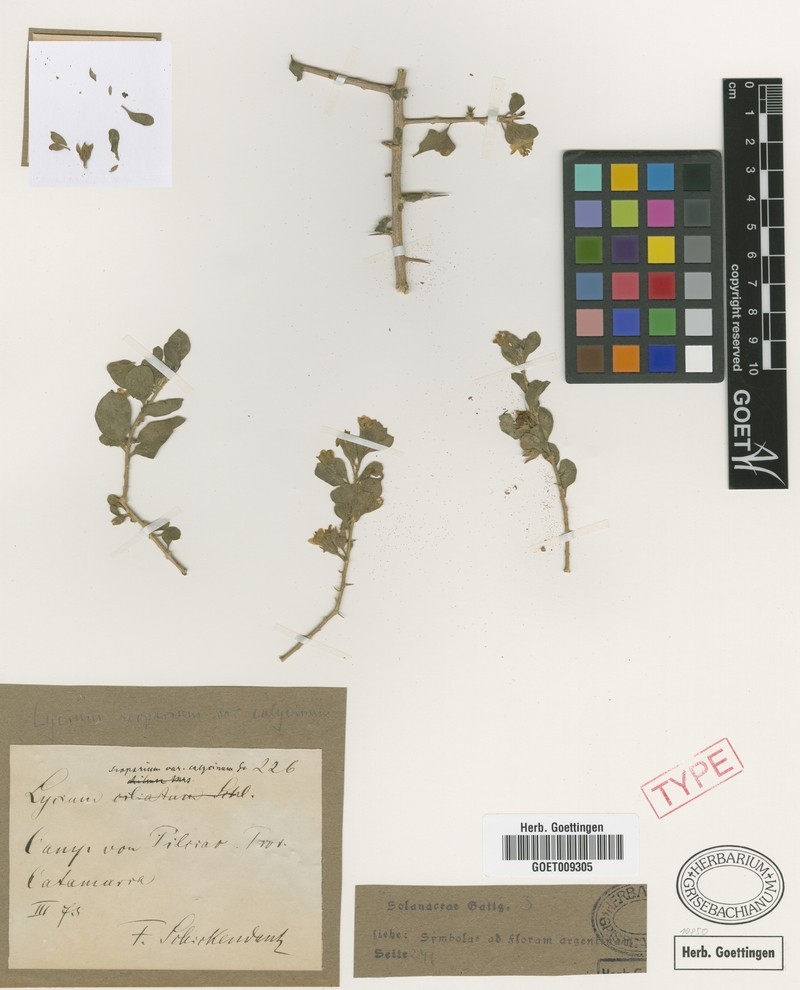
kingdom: Plantae
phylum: Tracheophyta
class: Magnoliopsida
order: Solanales
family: Solanaceae
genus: Lycium
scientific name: Lycium tenuispinosum
